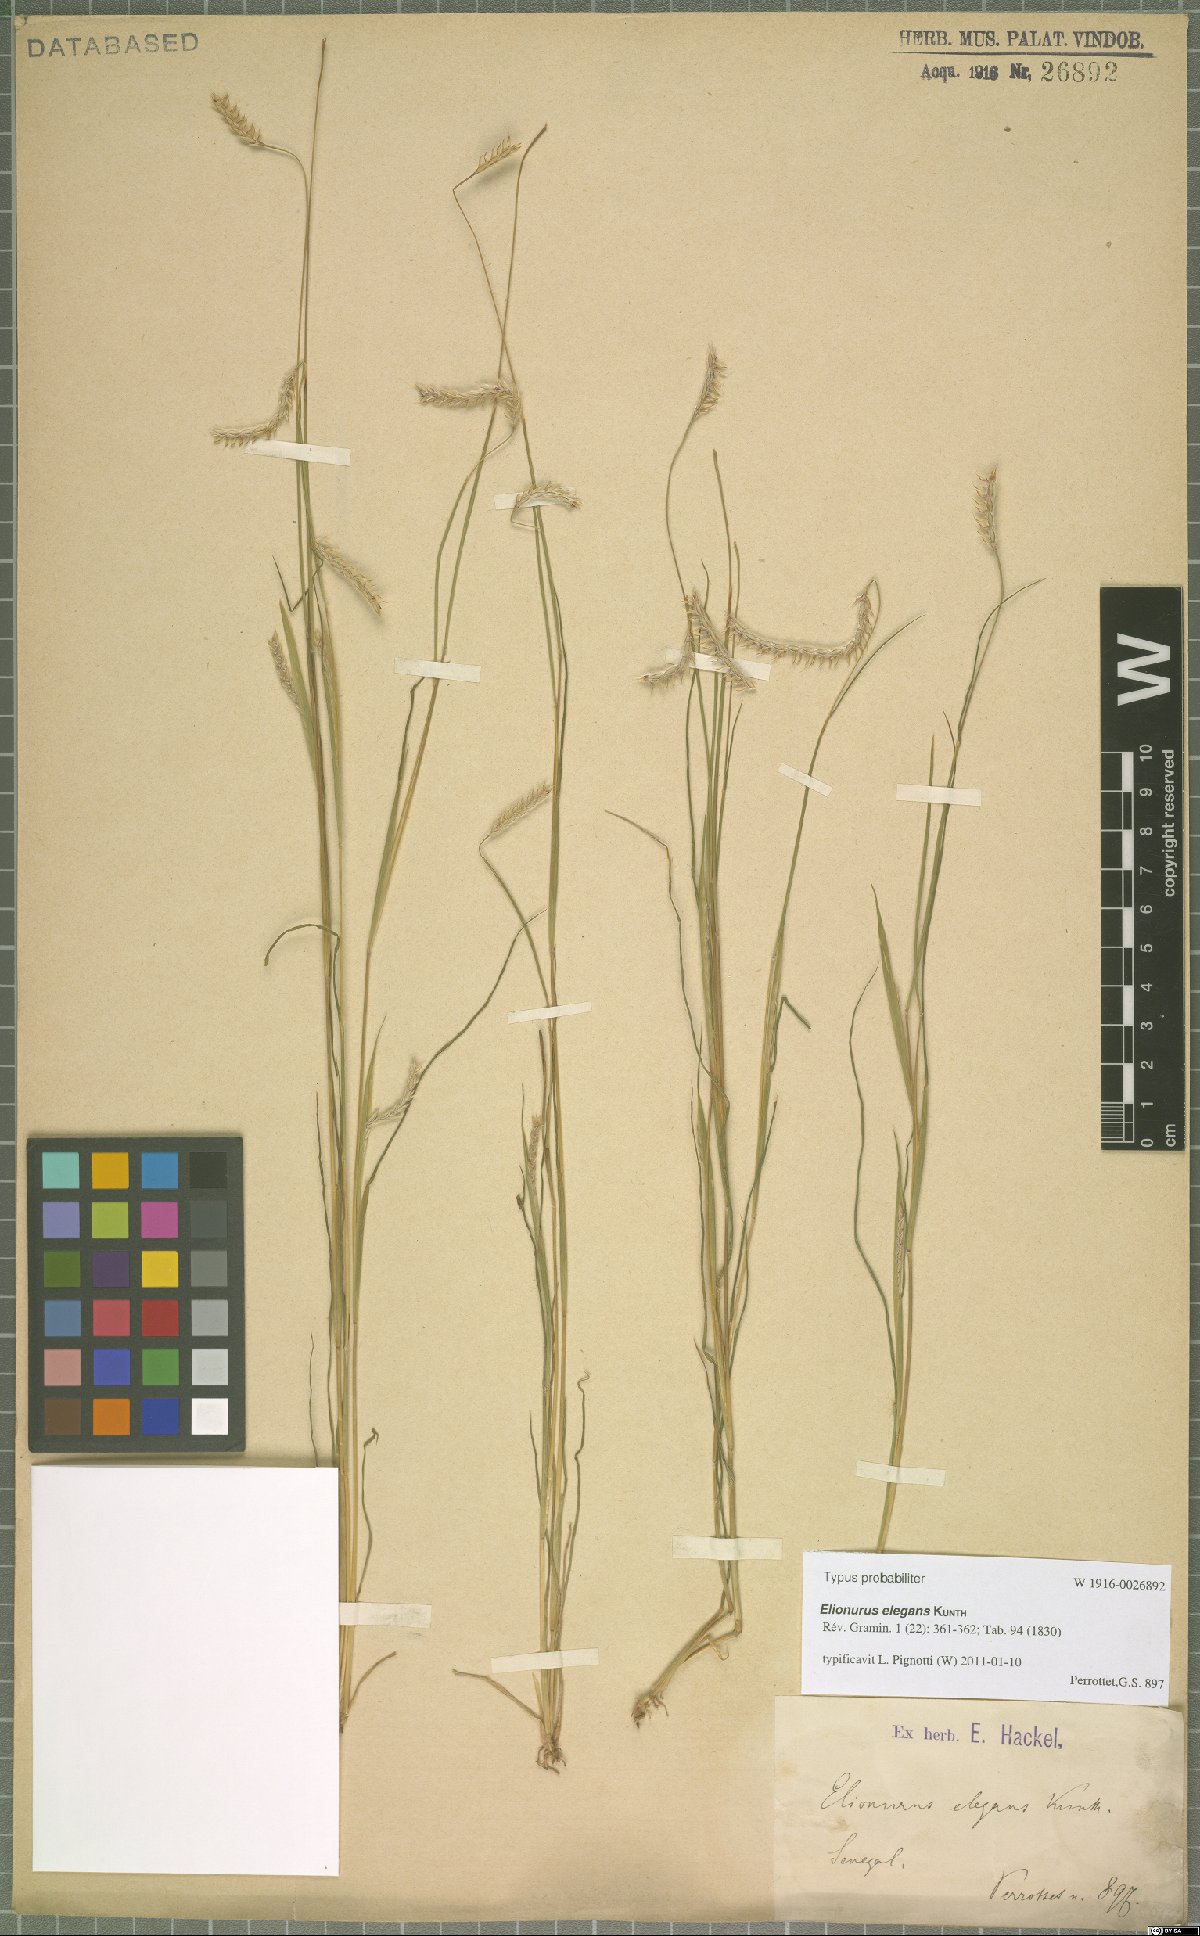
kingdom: Plantae
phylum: Tracheophyta
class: Liliopsida
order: Poales
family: Poaceae
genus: Elionurus
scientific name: Elionurus elegans
